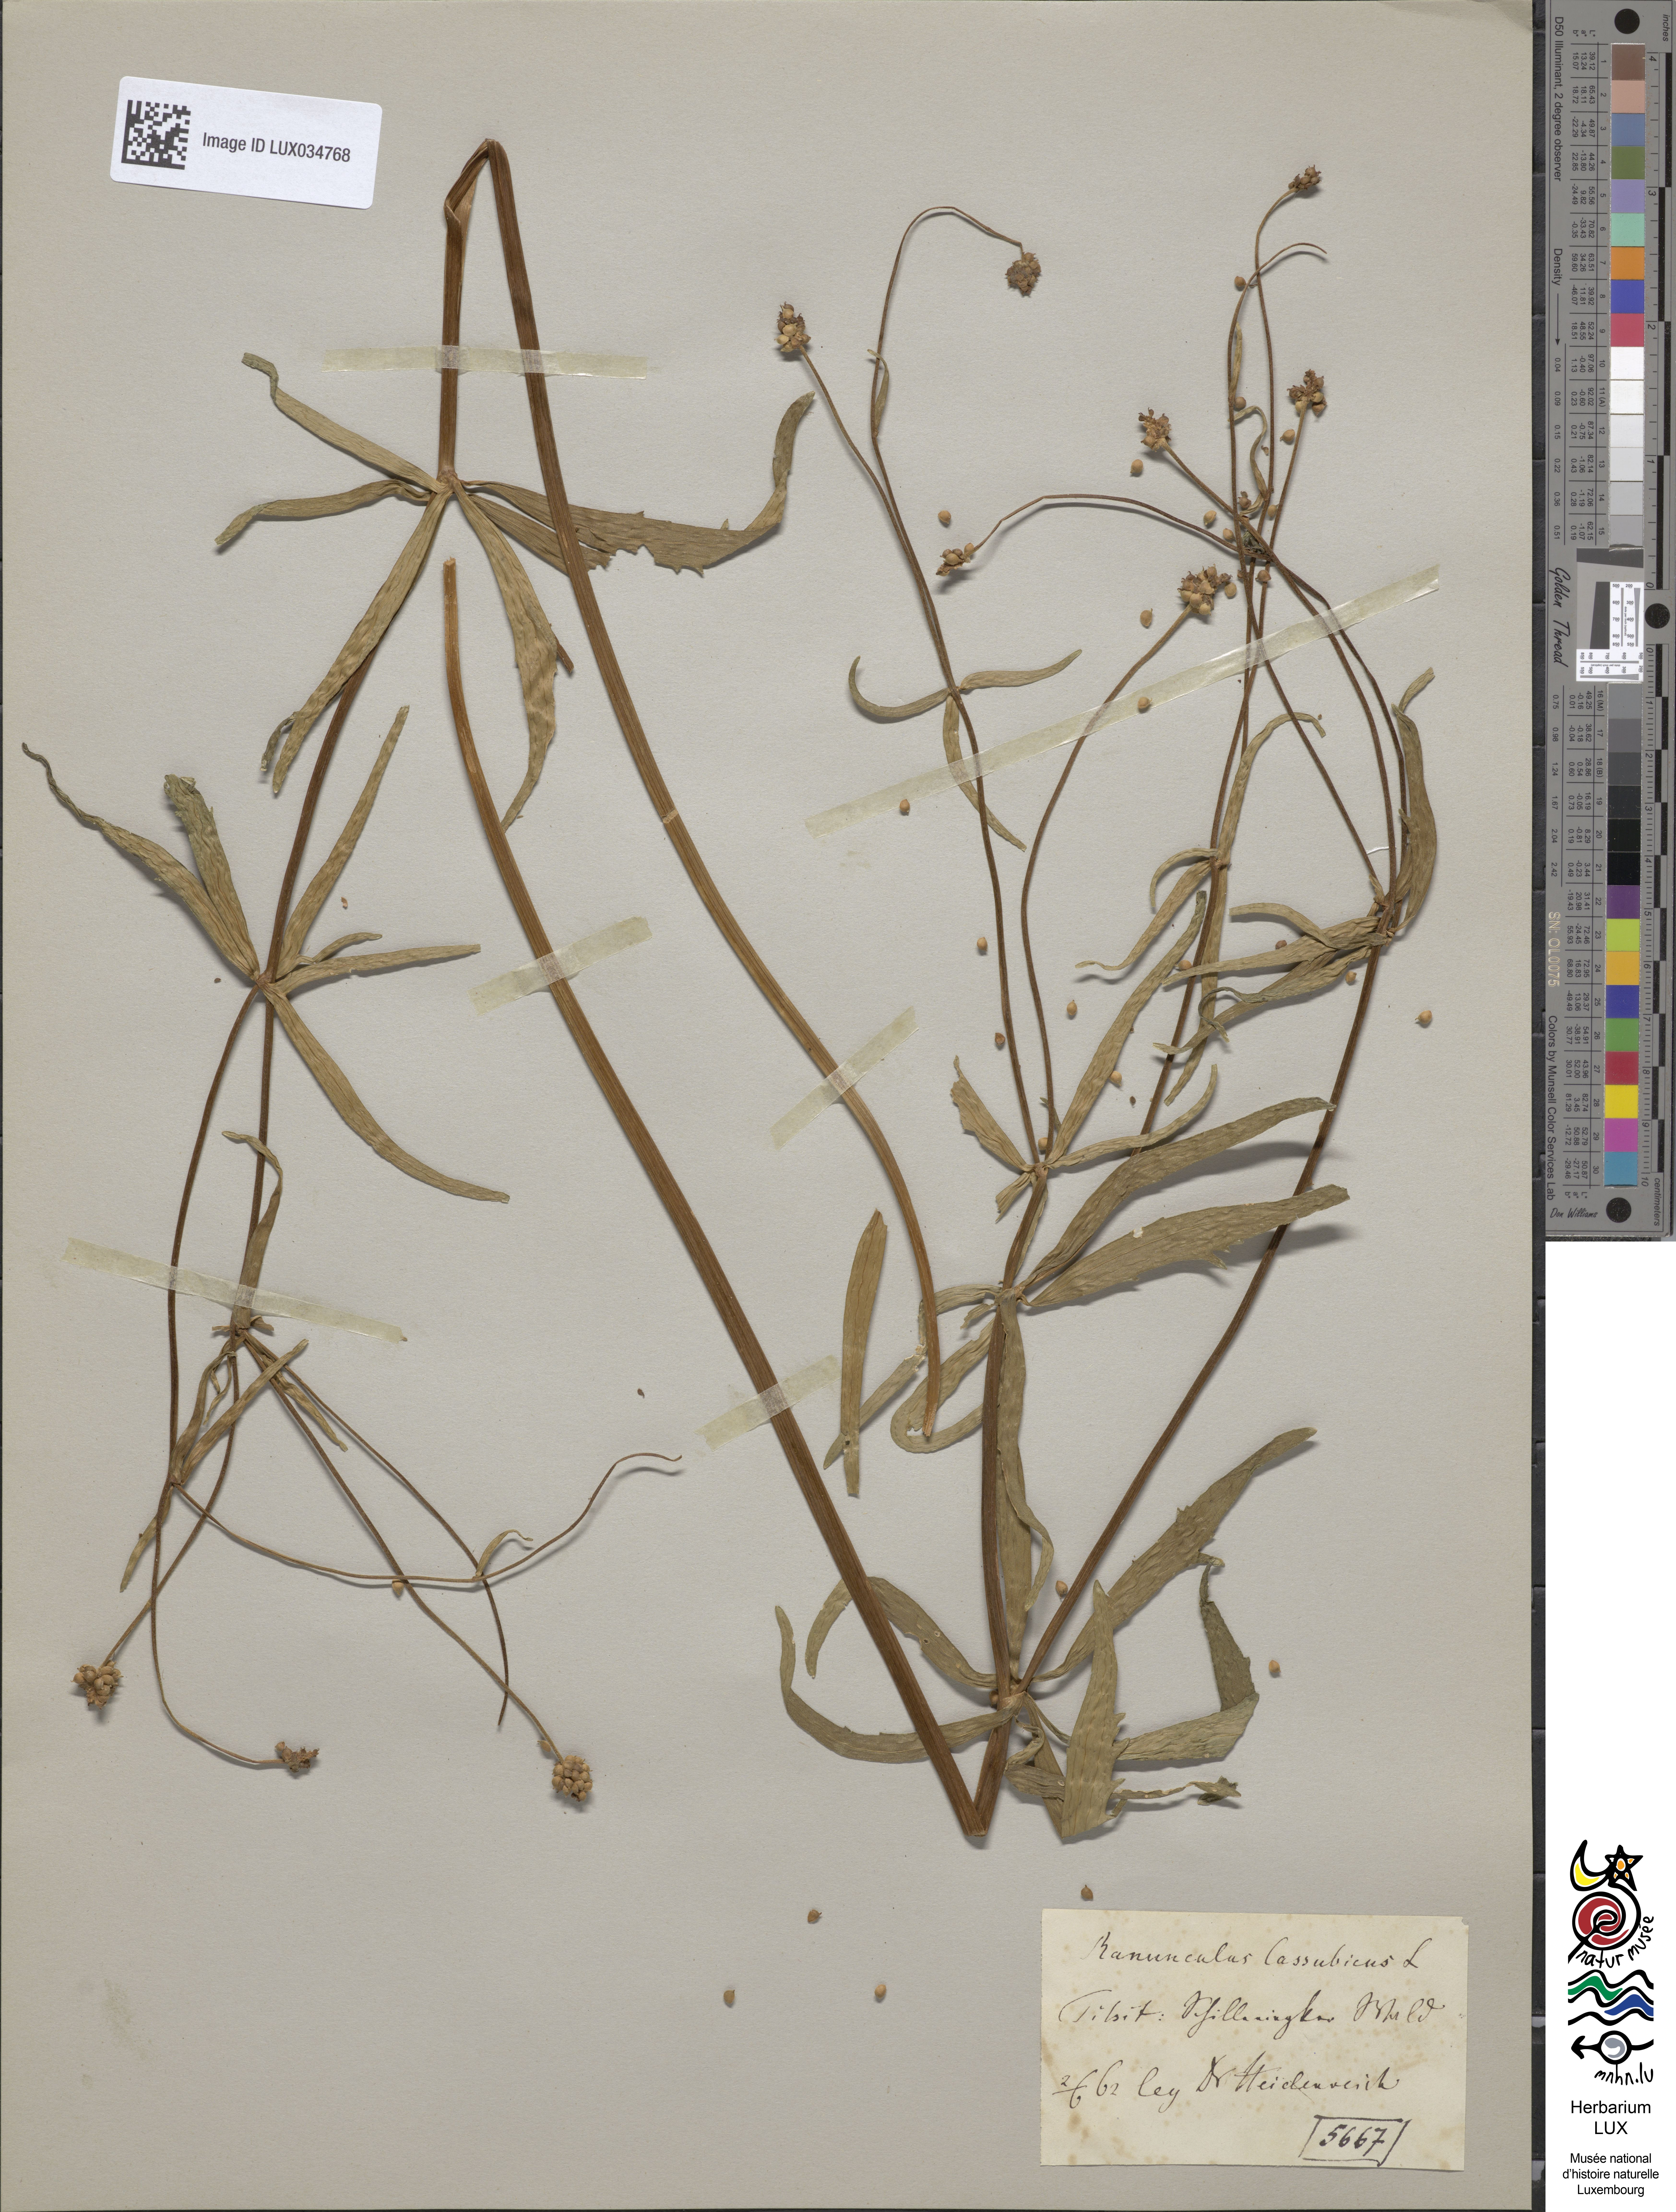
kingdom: Plantae
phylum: Tracheophyta
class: Magnoliopsida
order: Ranunculales
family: Ranunculaceae
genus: Ranunculus
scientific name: Ranunculus cassubicus
